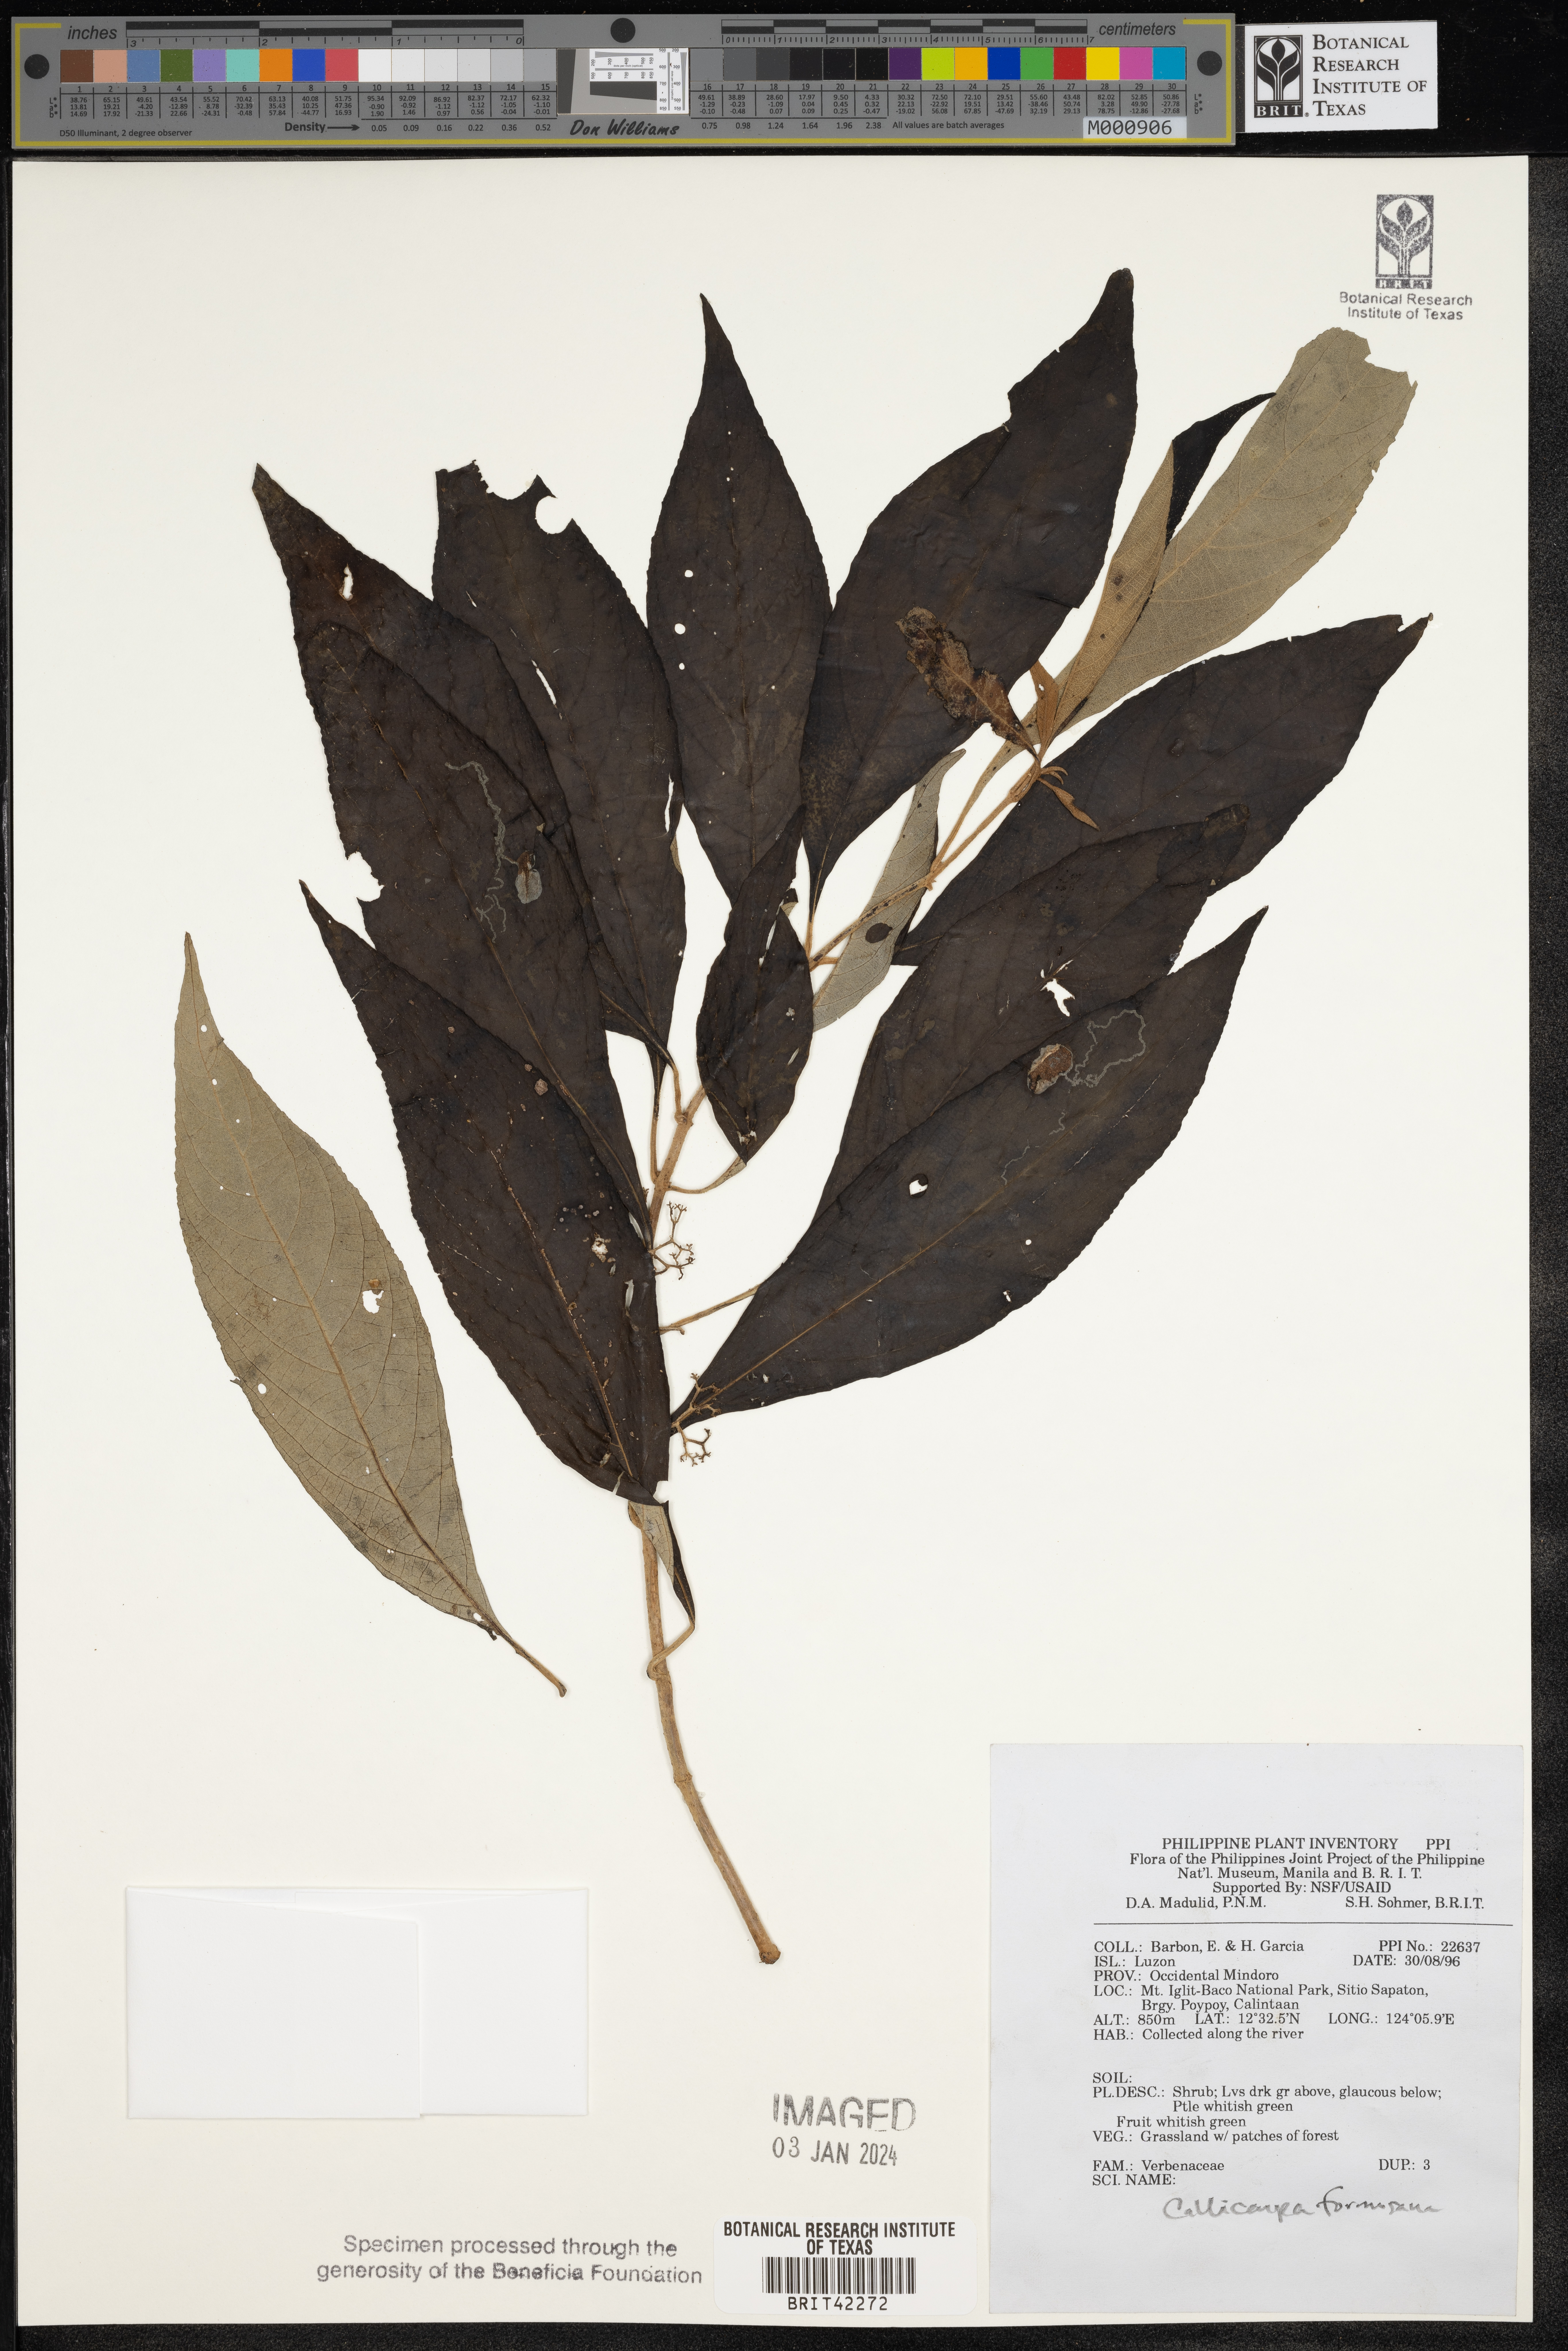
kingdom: Plantae
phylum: Tracheophyta
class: Magnoliopsida
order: Lamiales
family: Lamiaceae
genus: Callicarpa
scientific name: Callicarpa pedunculata
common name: Velvetleaf
